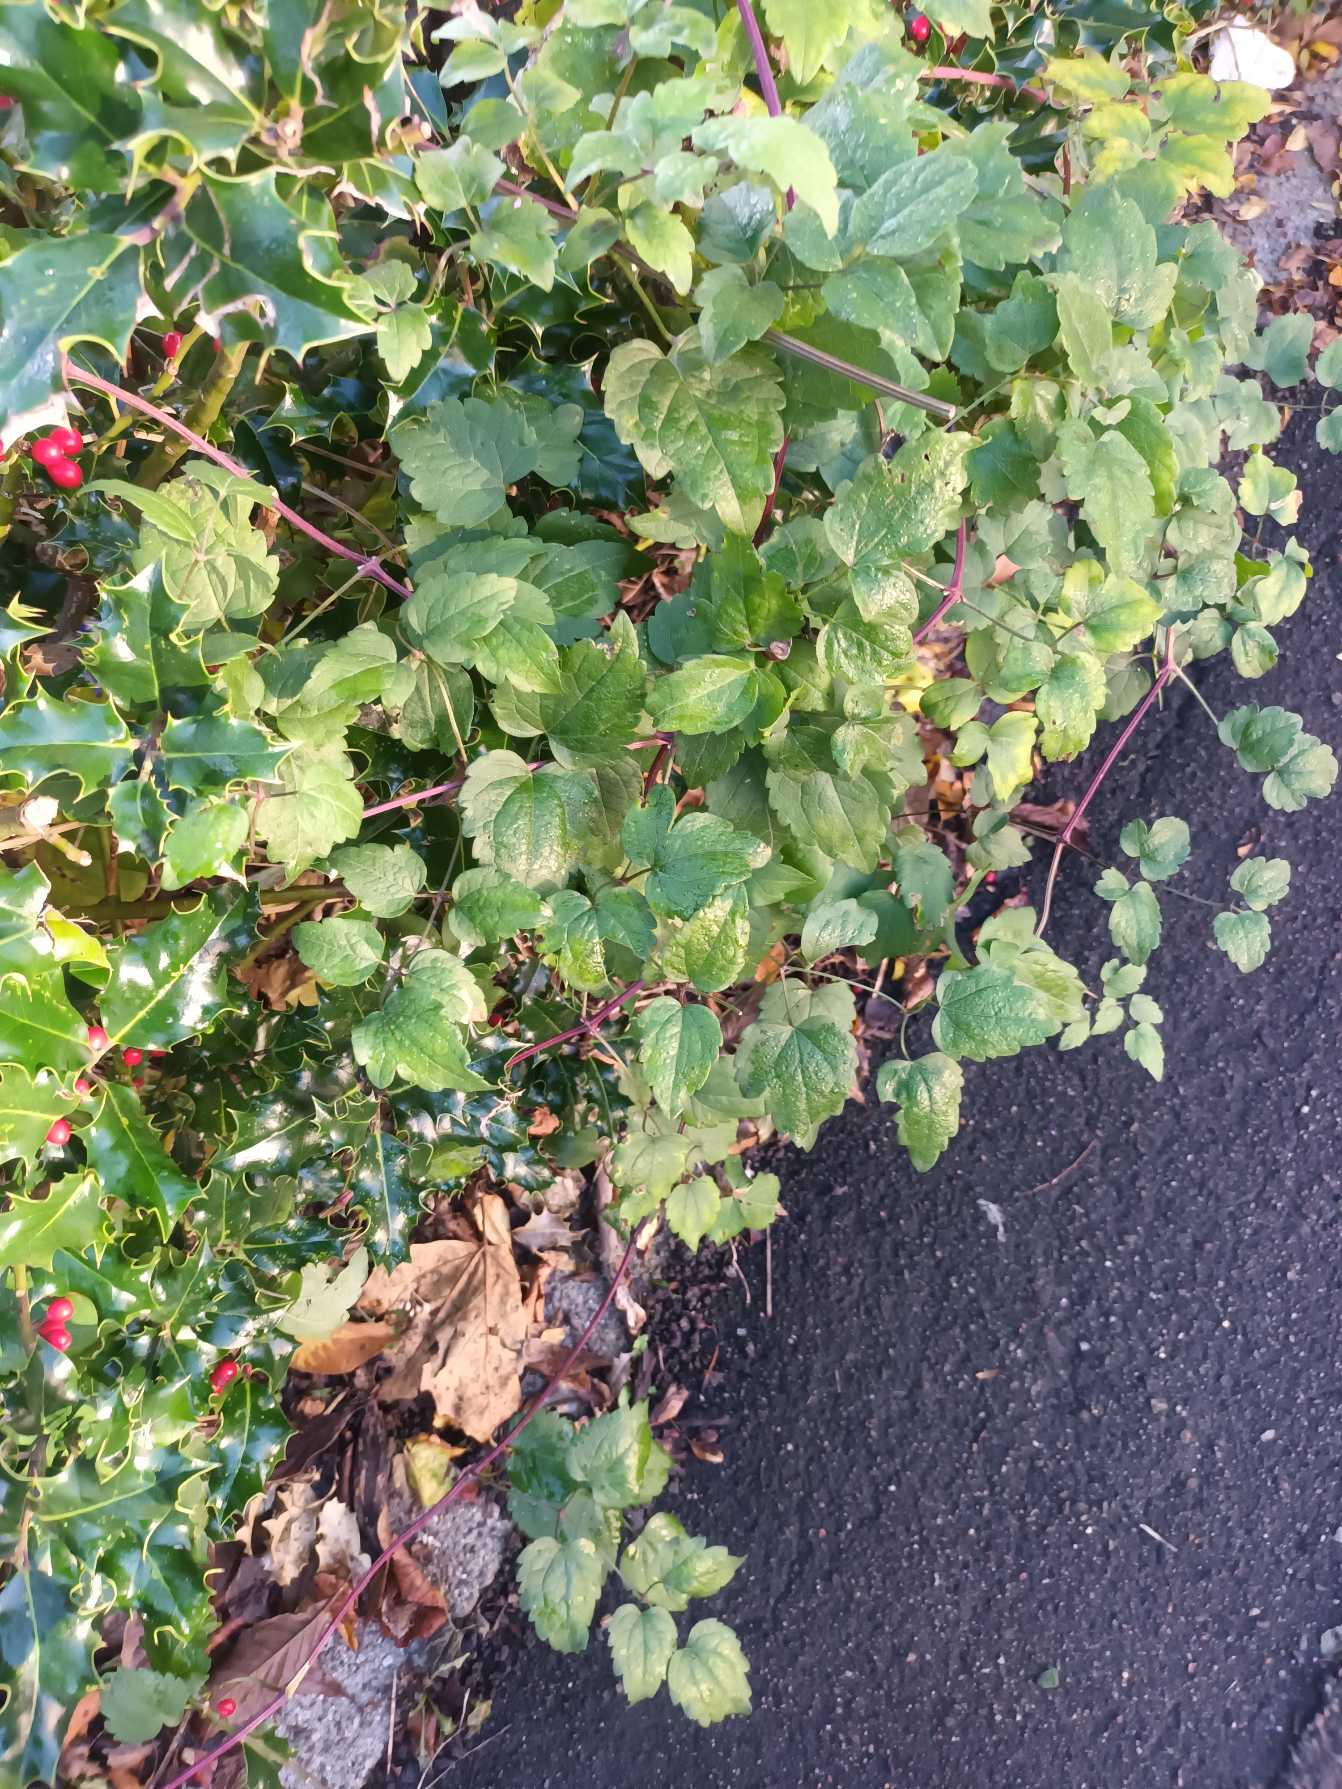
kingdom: Plantae
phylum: Tracheophyta
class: Magnoliopsida
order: Ranunculales
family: Ranunculaceae
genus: Clematis
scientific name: Clematis vitalba
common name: Skovranke
